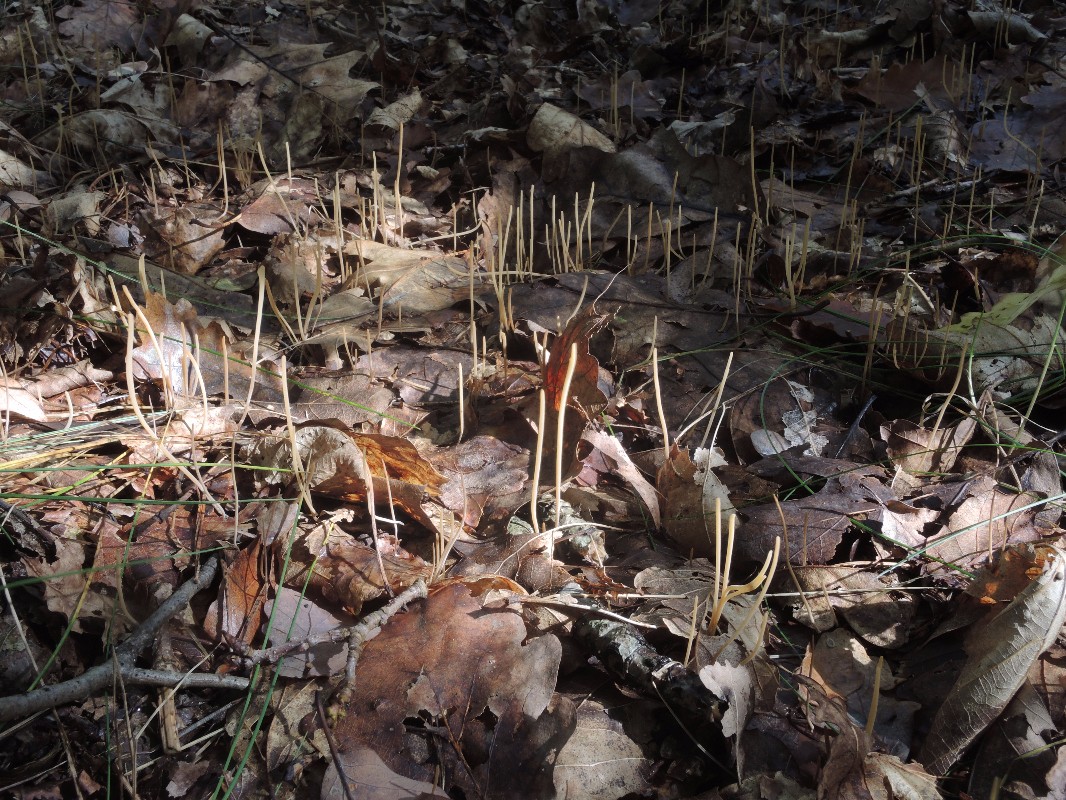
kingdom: Fungi
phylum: Basidiomycota
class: Agaricomycetes
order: Agaricales
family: Typhulaceae
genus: Typhula
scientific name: Typhula juncea
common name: trådagtig rørkølle
